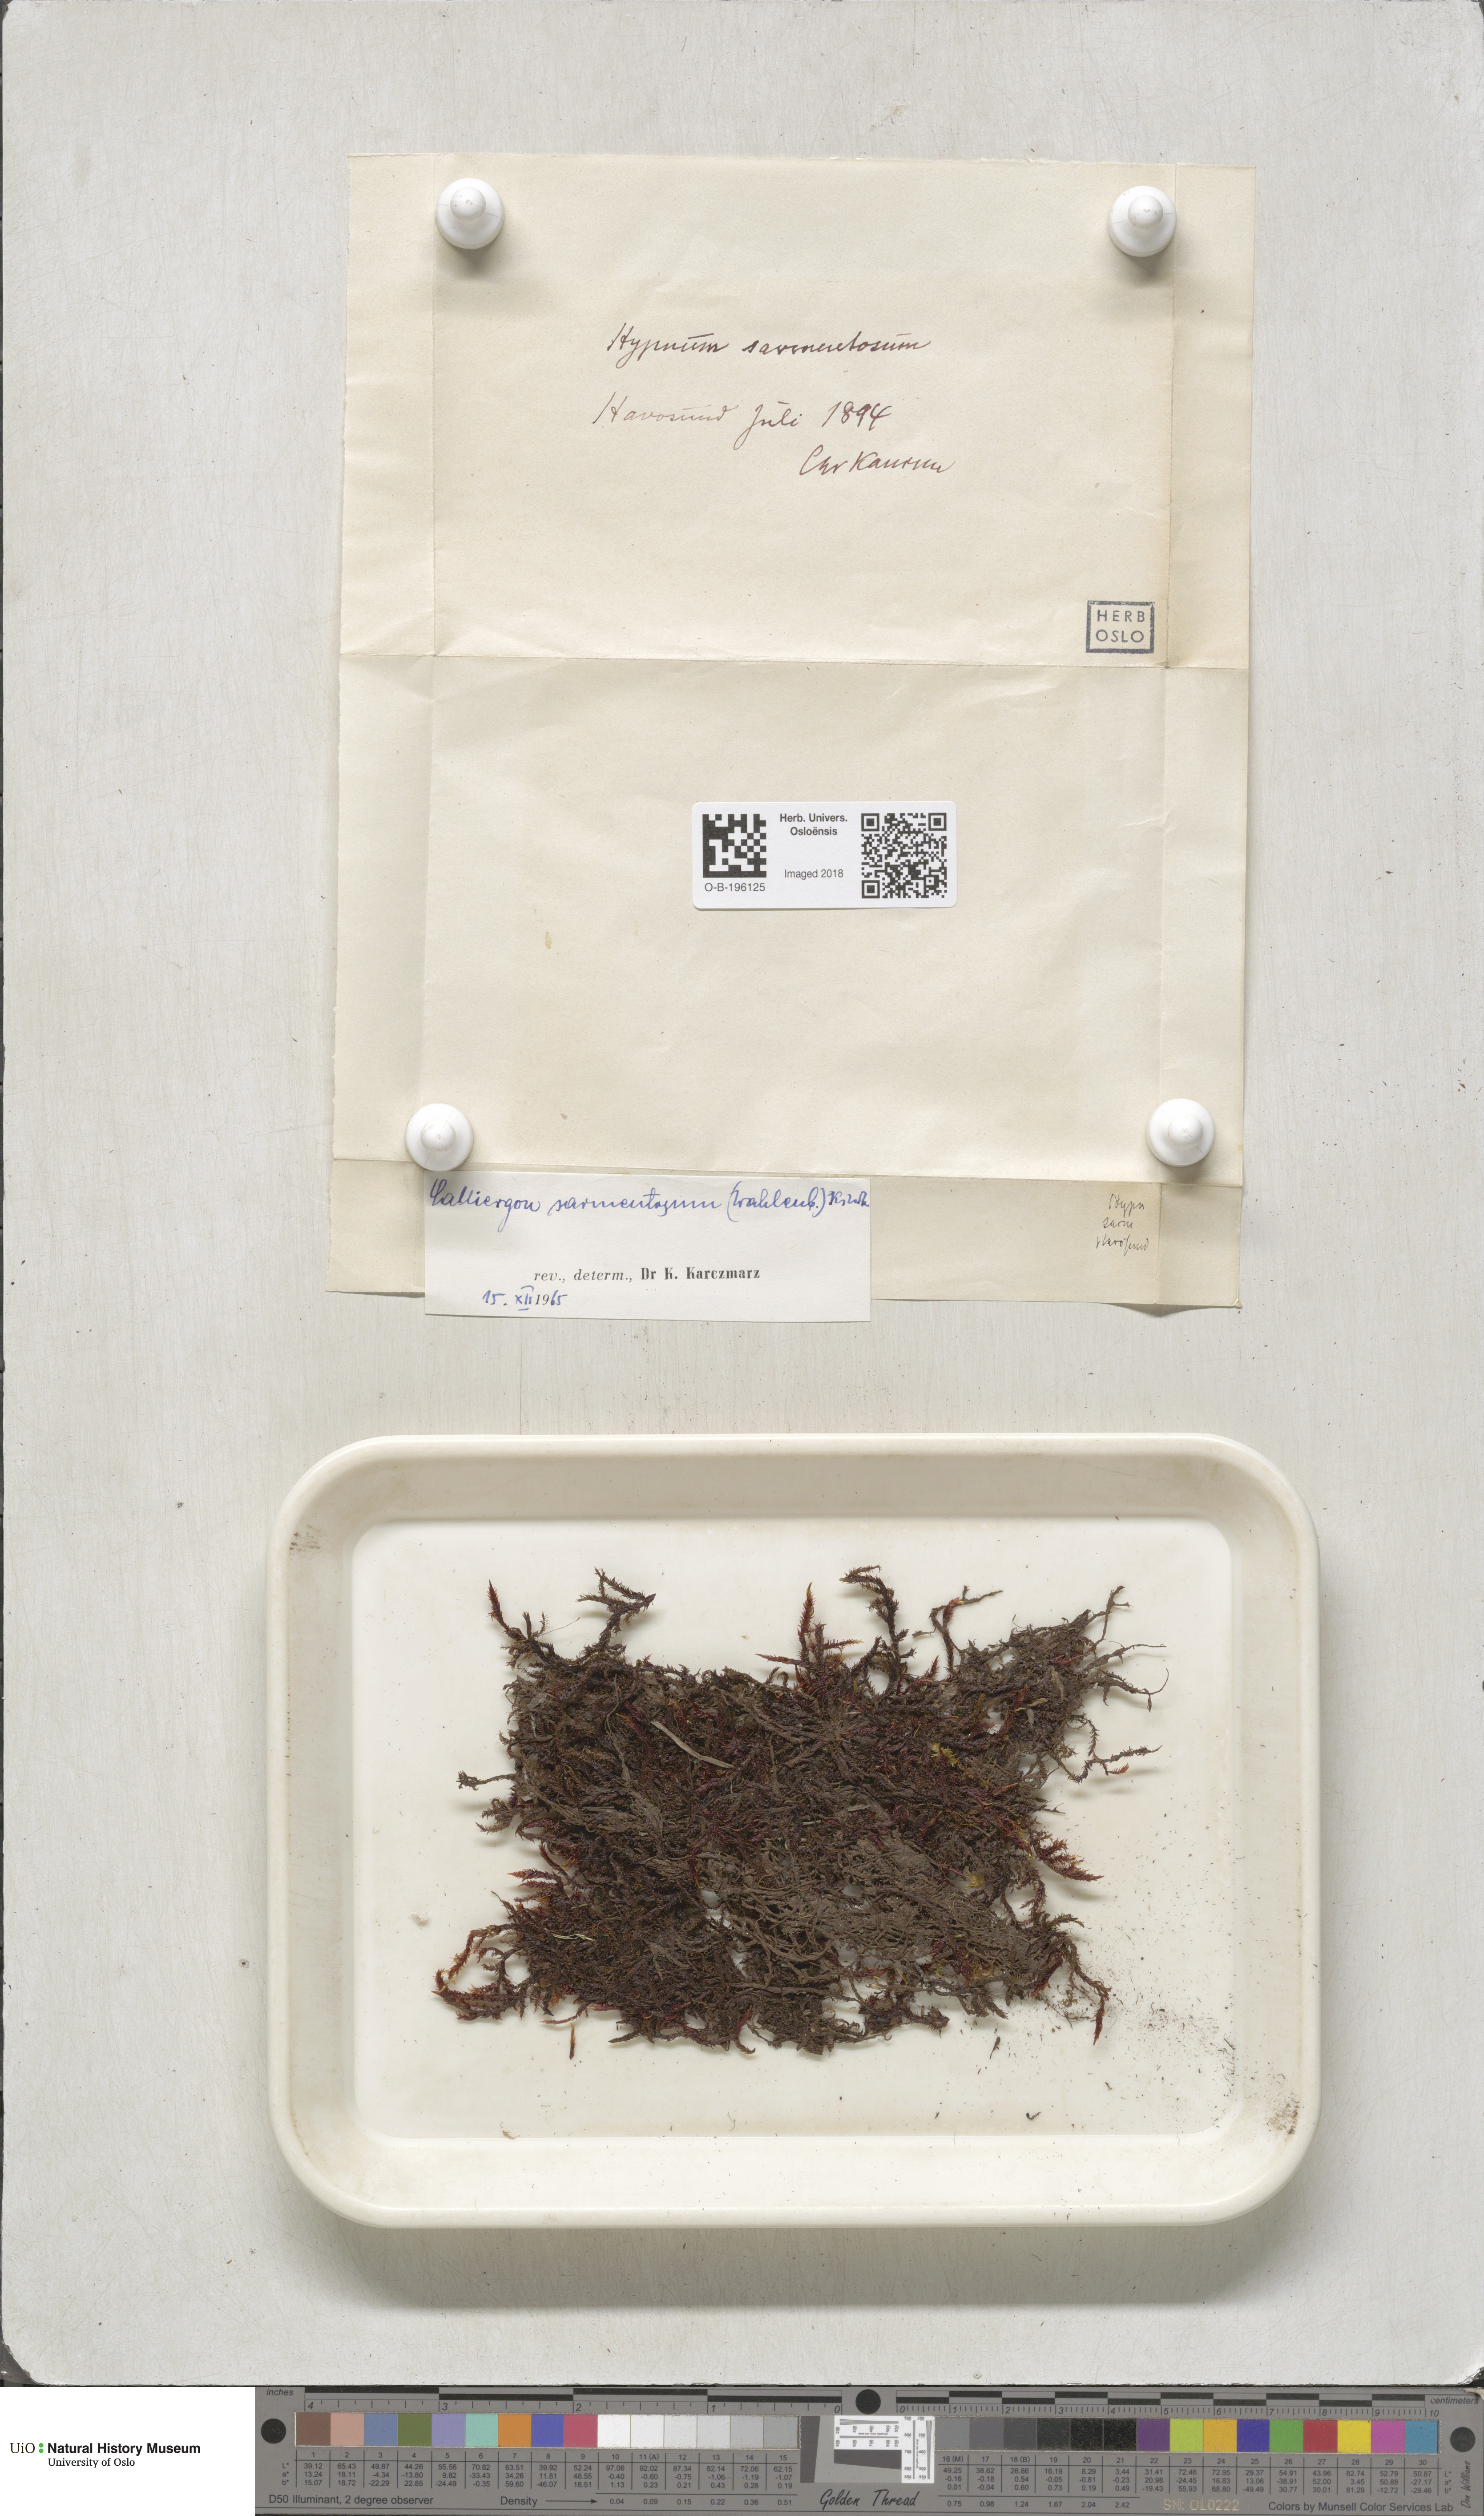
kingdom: Plantae
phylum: Bryophyta
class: Bryopsida
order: Hypnales
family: Calliergonaceae
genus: Sarmentypnum
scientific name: Sarmentypnum sarmentosum
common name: Twiggy spoon moss
